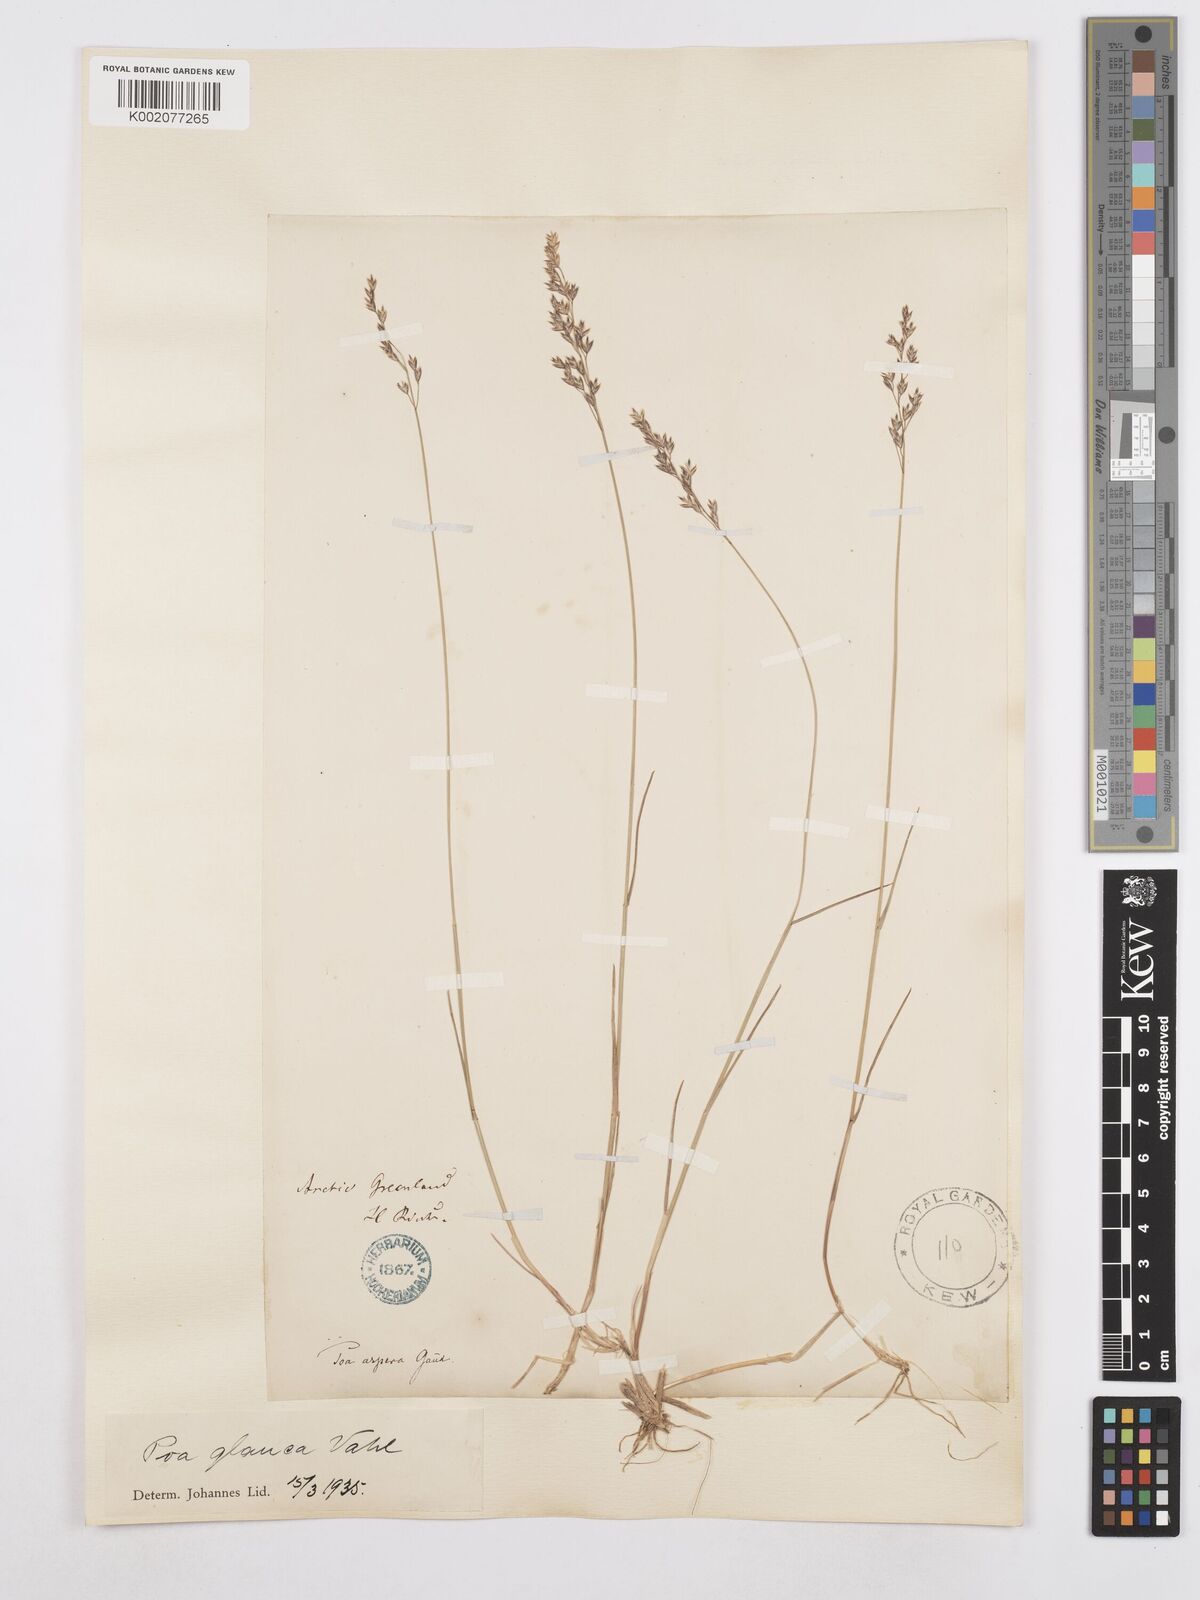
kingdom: Plantae
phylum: Tracheophyta
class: Liliopsida
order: Poales
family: Poaceae
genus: Poa
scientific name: Poa glauca
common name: Glaucous bluegrass
